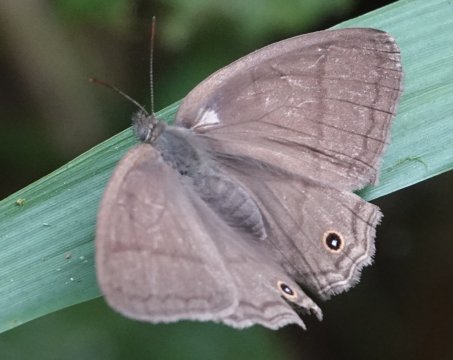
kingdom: Animalia
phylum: Arthropoda
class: Insecta
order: Lepidoptera
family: Nymphalidae
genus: Euptychia
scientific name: Euptychia Cissia pompilia
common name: Plain Satyr
